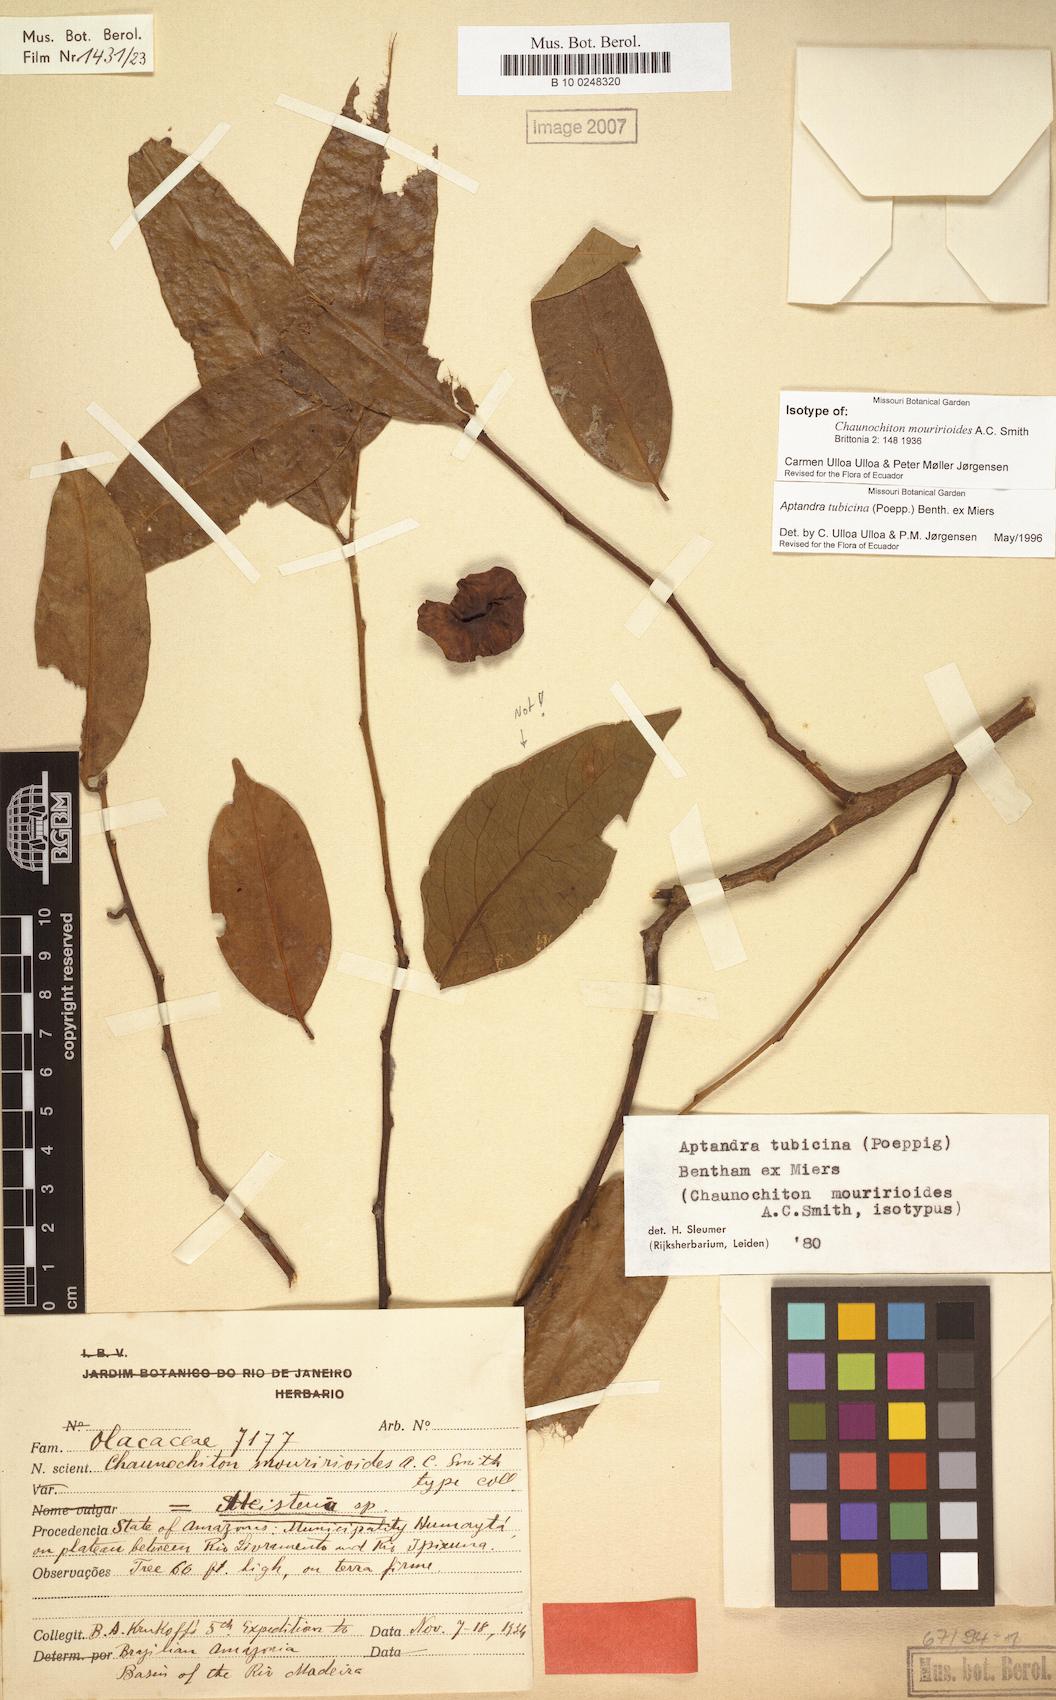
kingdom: Plantae
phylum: Tracheophyta
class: Magnoliopsida
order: Santalales
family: Aptandraceae
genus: Aptandra
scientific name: Aptandra tubicina
